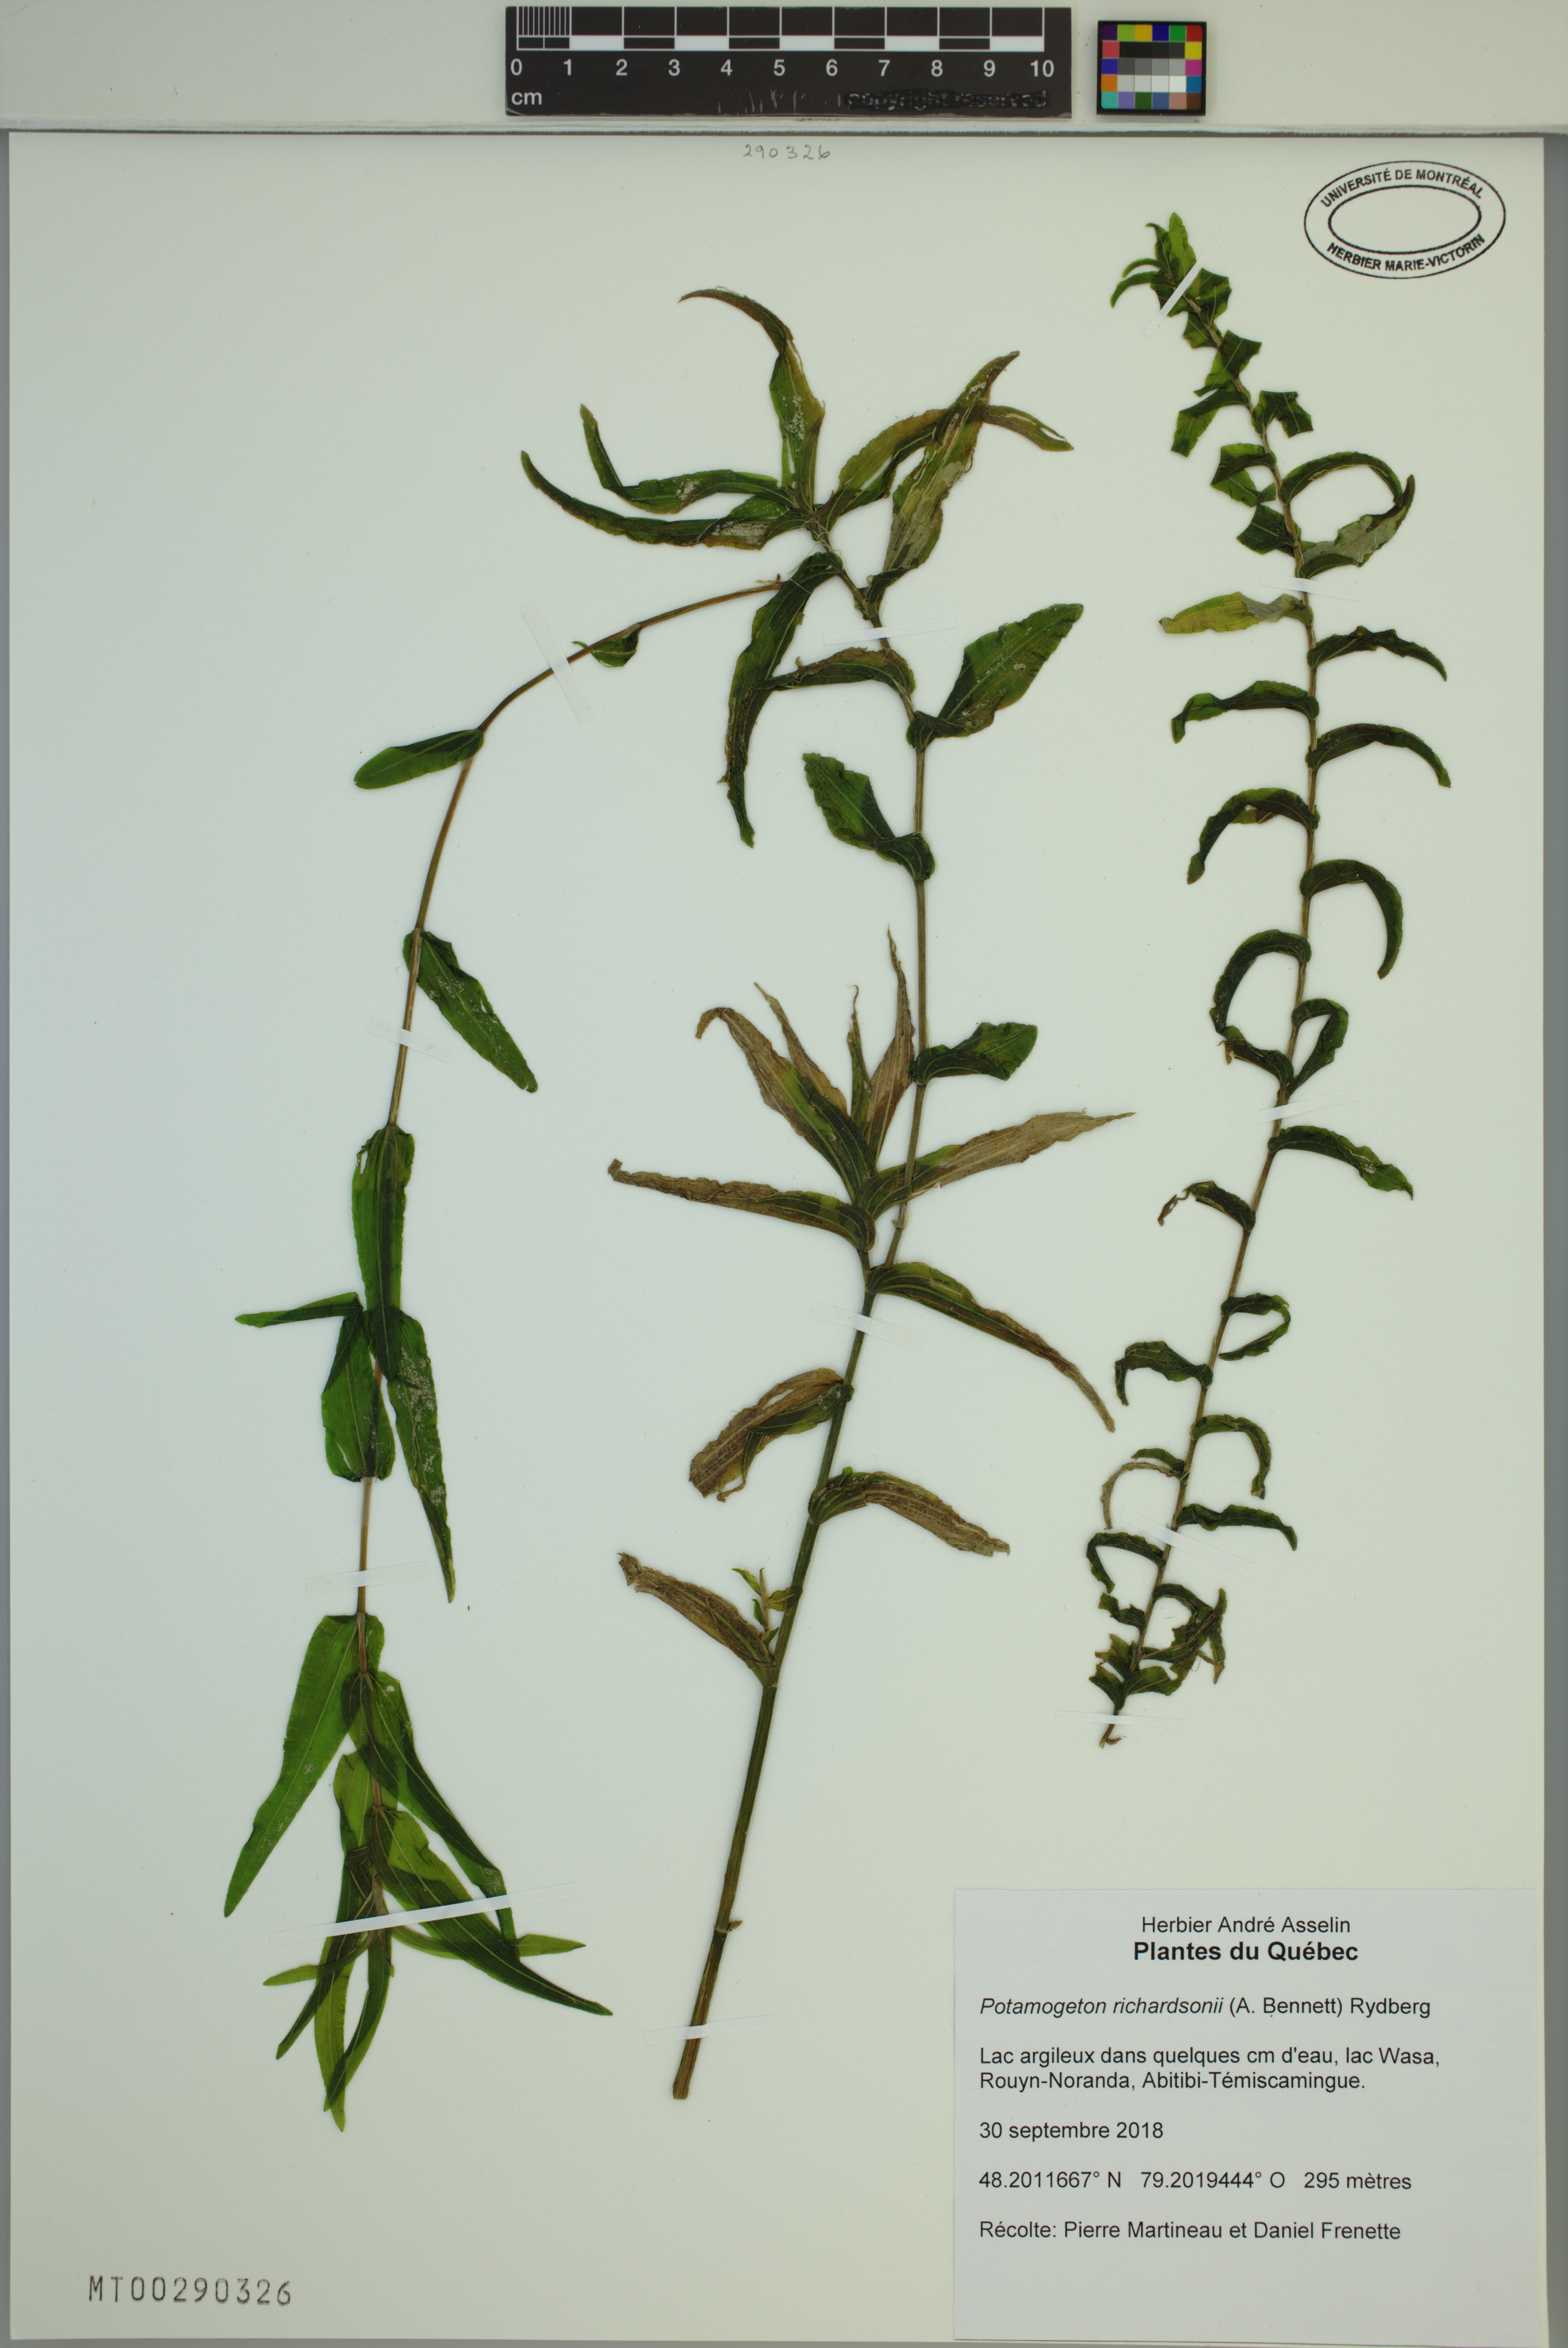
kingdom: Plantae
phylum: Tracheophyta
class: Liliopsida
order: Alismatales
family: Potamogetonaceae
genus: Potamogeton
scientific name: Potamogeton richardsonii
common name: Richardson's pondweed
